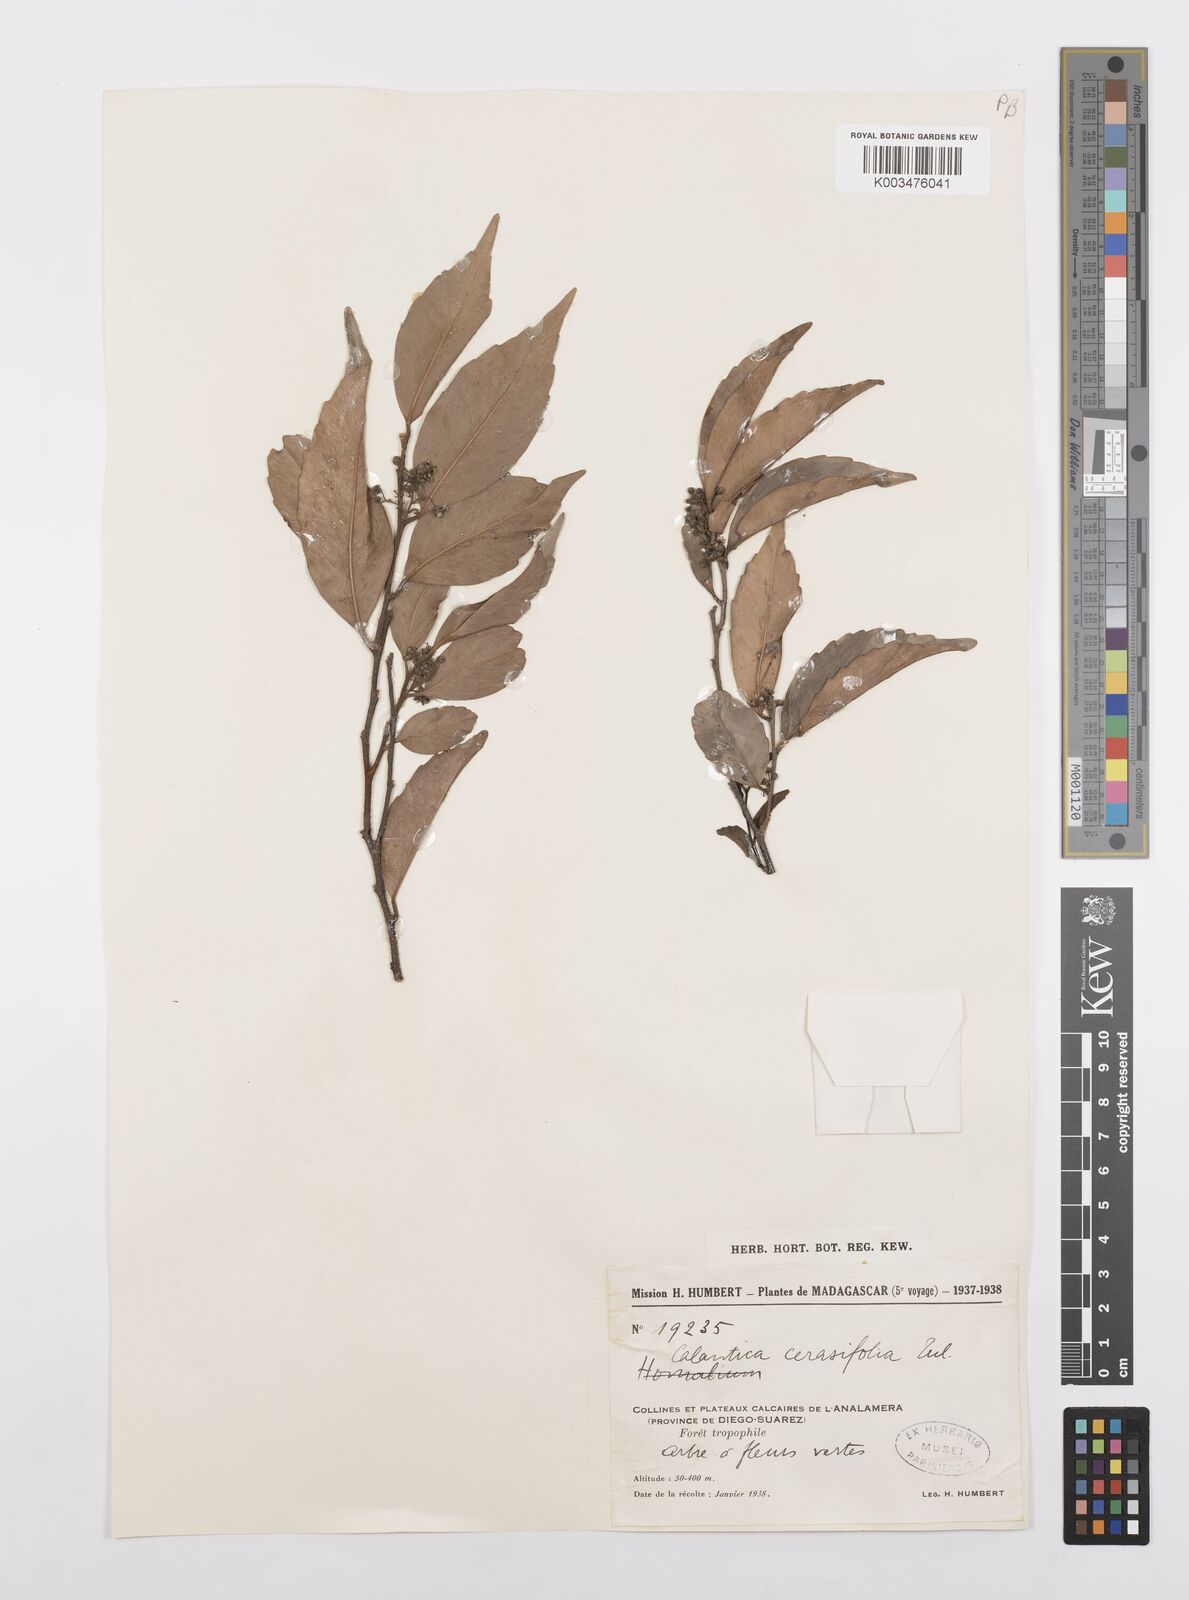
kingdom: Plantae
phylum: Tracheophyta
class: Magnoliopsida
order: Malpighiales
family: Salicaceae
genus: Calantica
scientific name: Calantica cerasifolia
